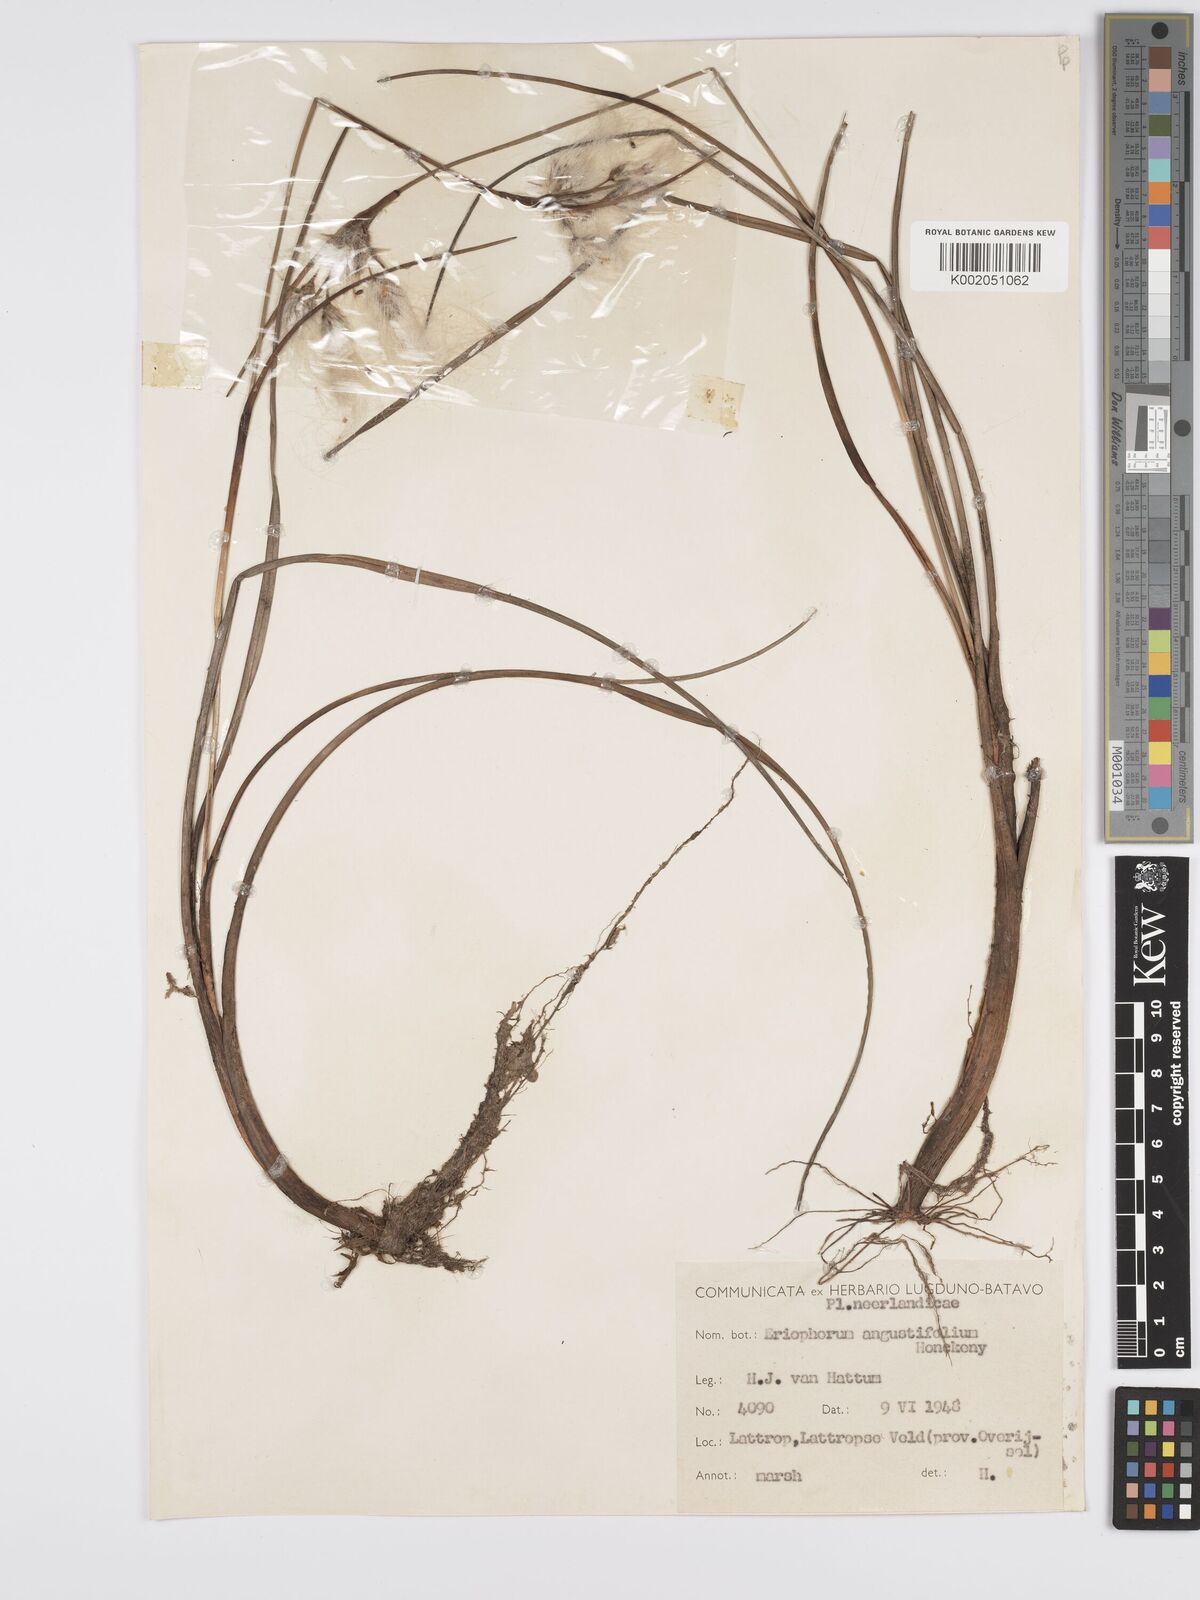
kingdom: Plantae
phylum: Tracheophyta
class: Liliopsida
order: Poales
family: Cyperaceae
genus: Eriophorum
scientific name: Eriophorum angustifolium
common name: Common cottongrass
